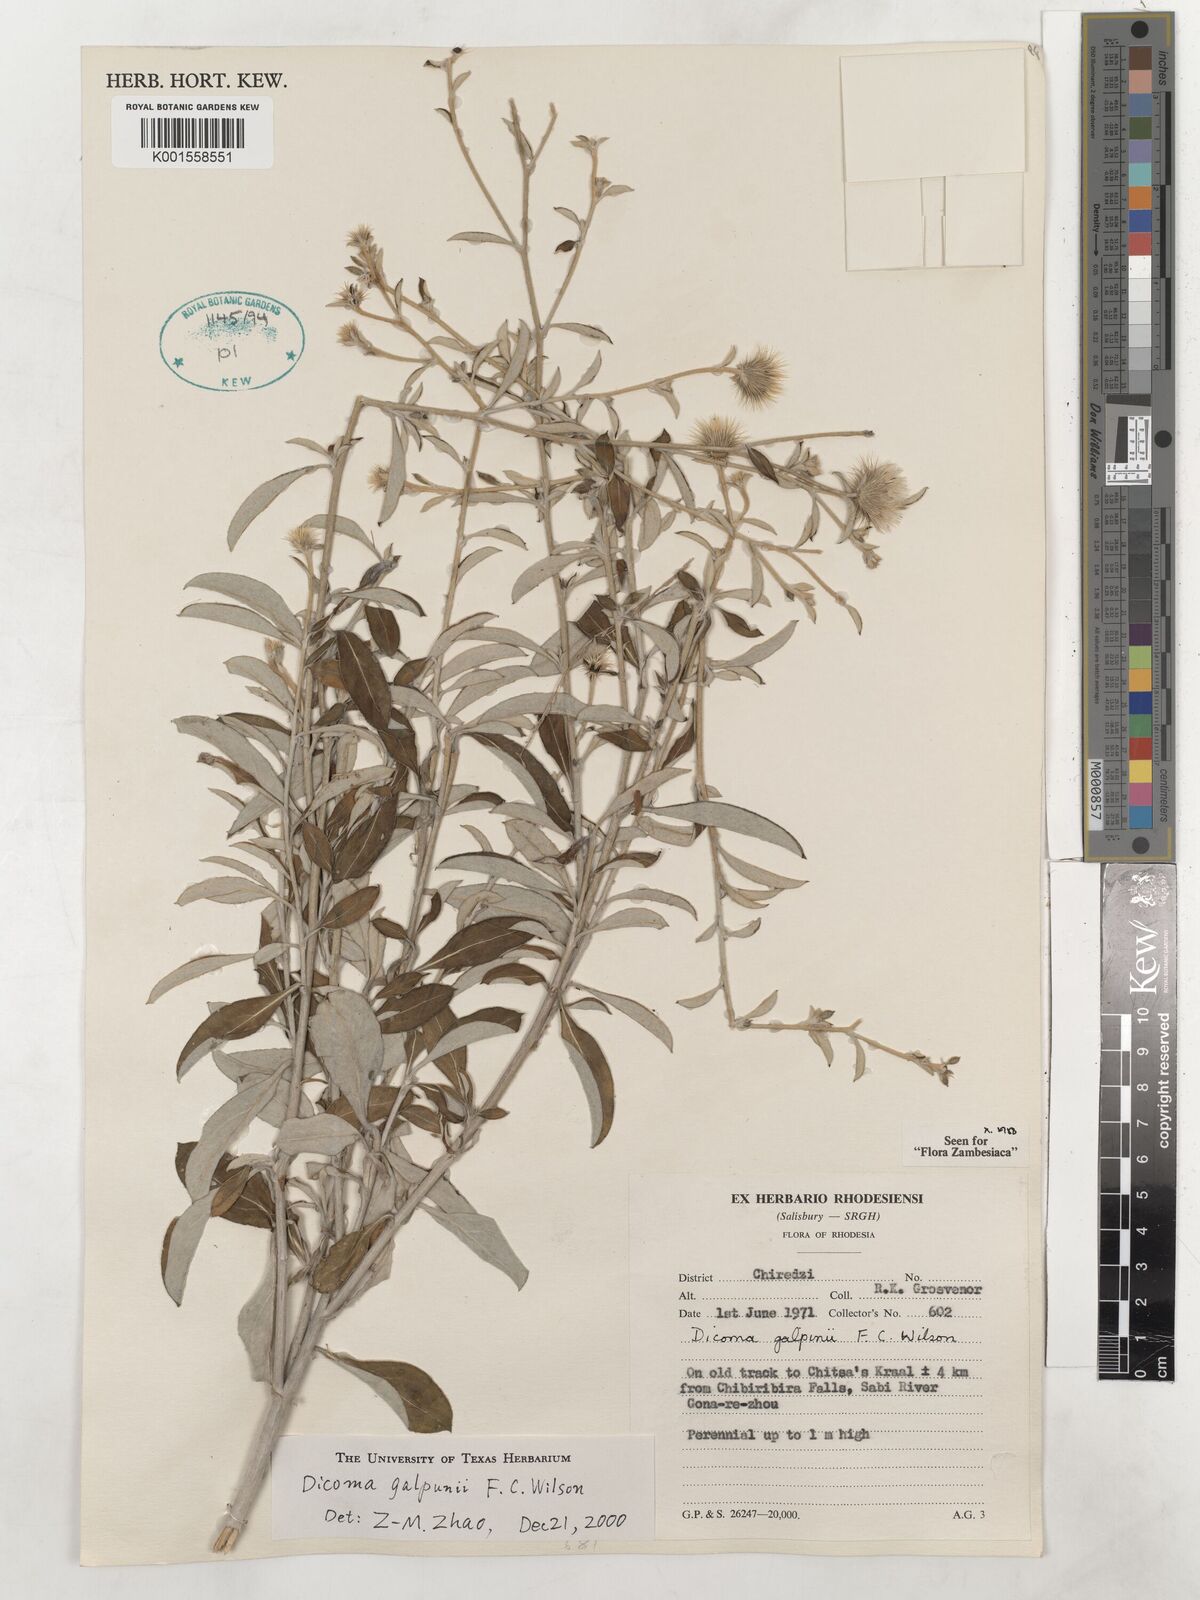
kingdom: Plantae
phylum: Tracheophyta
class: Magnoliopsida
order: Asterales
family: Asteraceae
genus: Dicoma
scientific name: Dicoma galpinii
